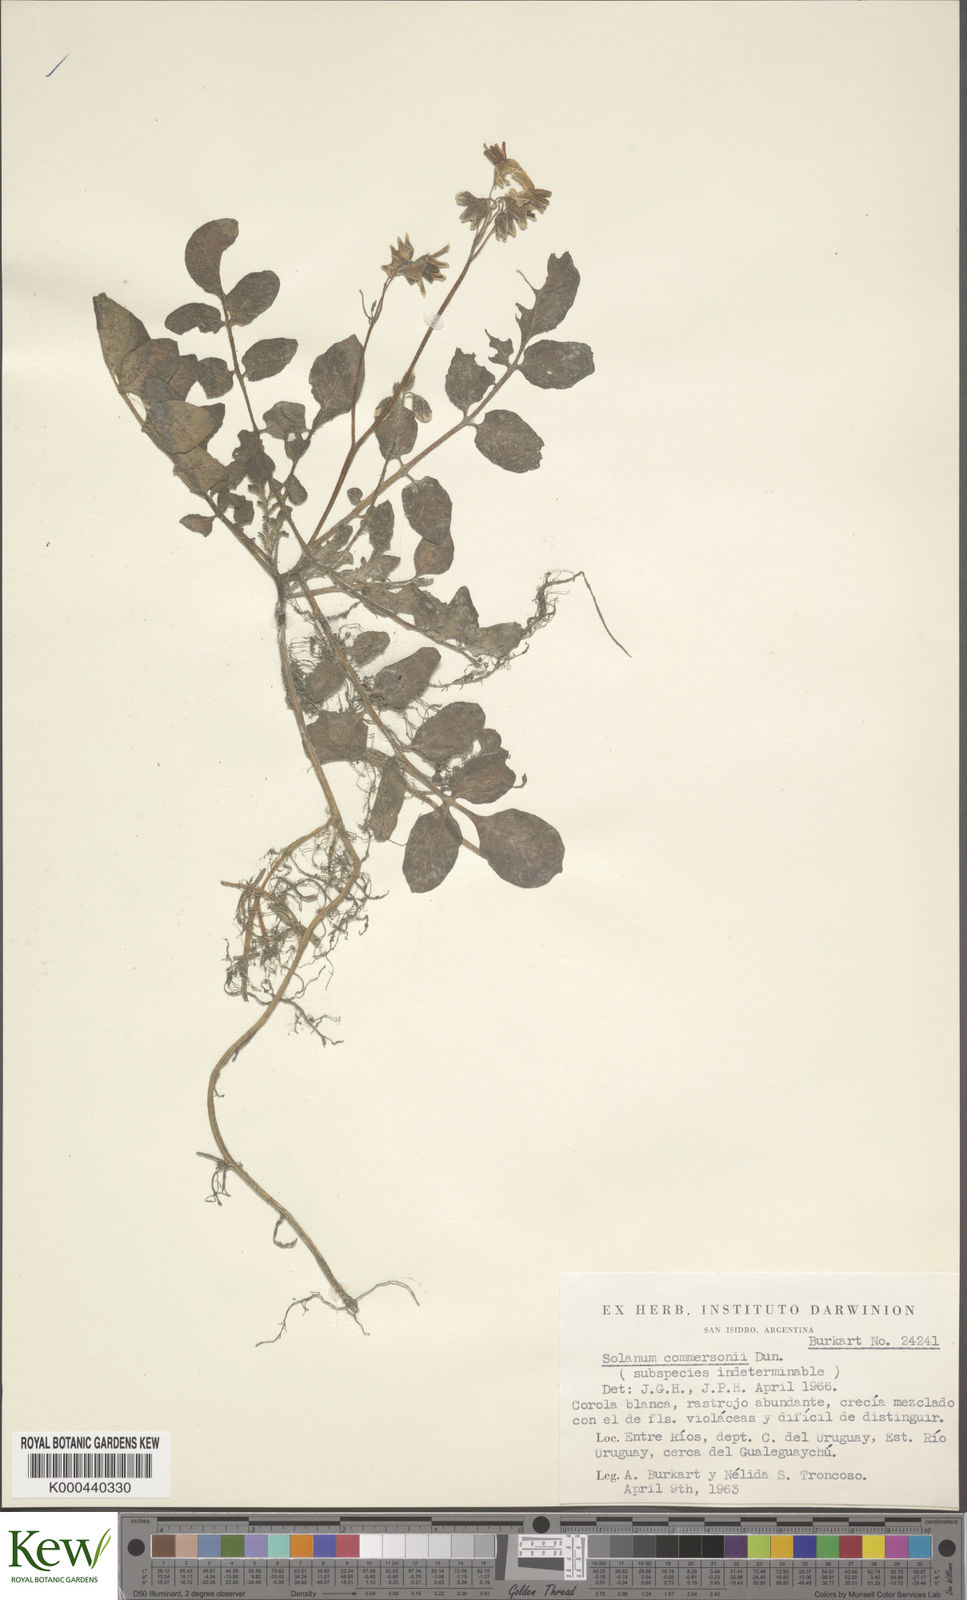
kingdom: Plantae
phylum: Tracheophyta
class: Magnoliopsida
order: Solanales
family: Solanaceae
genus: Solanum
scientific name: Solanum commersonii
